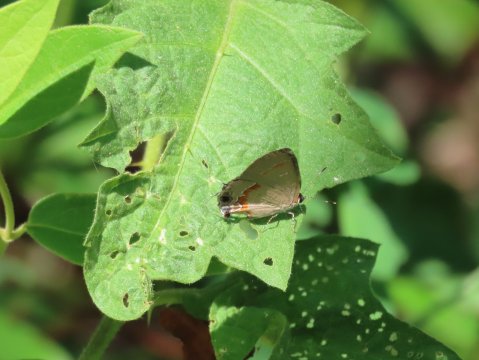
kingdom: Animalia
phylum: Arthropoda
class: Insecta
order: Lepidoptera
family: Lycaenidae
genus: Calycopis
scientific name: Calycopis cecrops
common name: Red-banded Hairstreak
